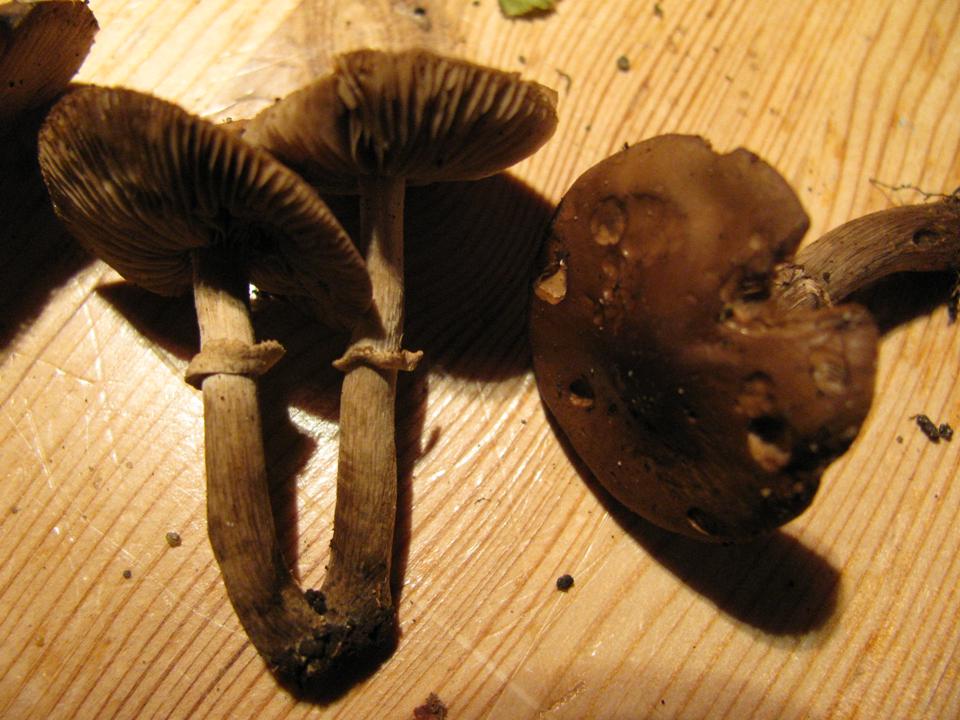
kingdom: Fungi
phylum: Basidiomycota
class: Agaricomycetes
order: Agaricales
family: Tubariaceae
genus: Cyclocybe
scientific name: Cyclocybe erebia
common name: mørk agerhat
